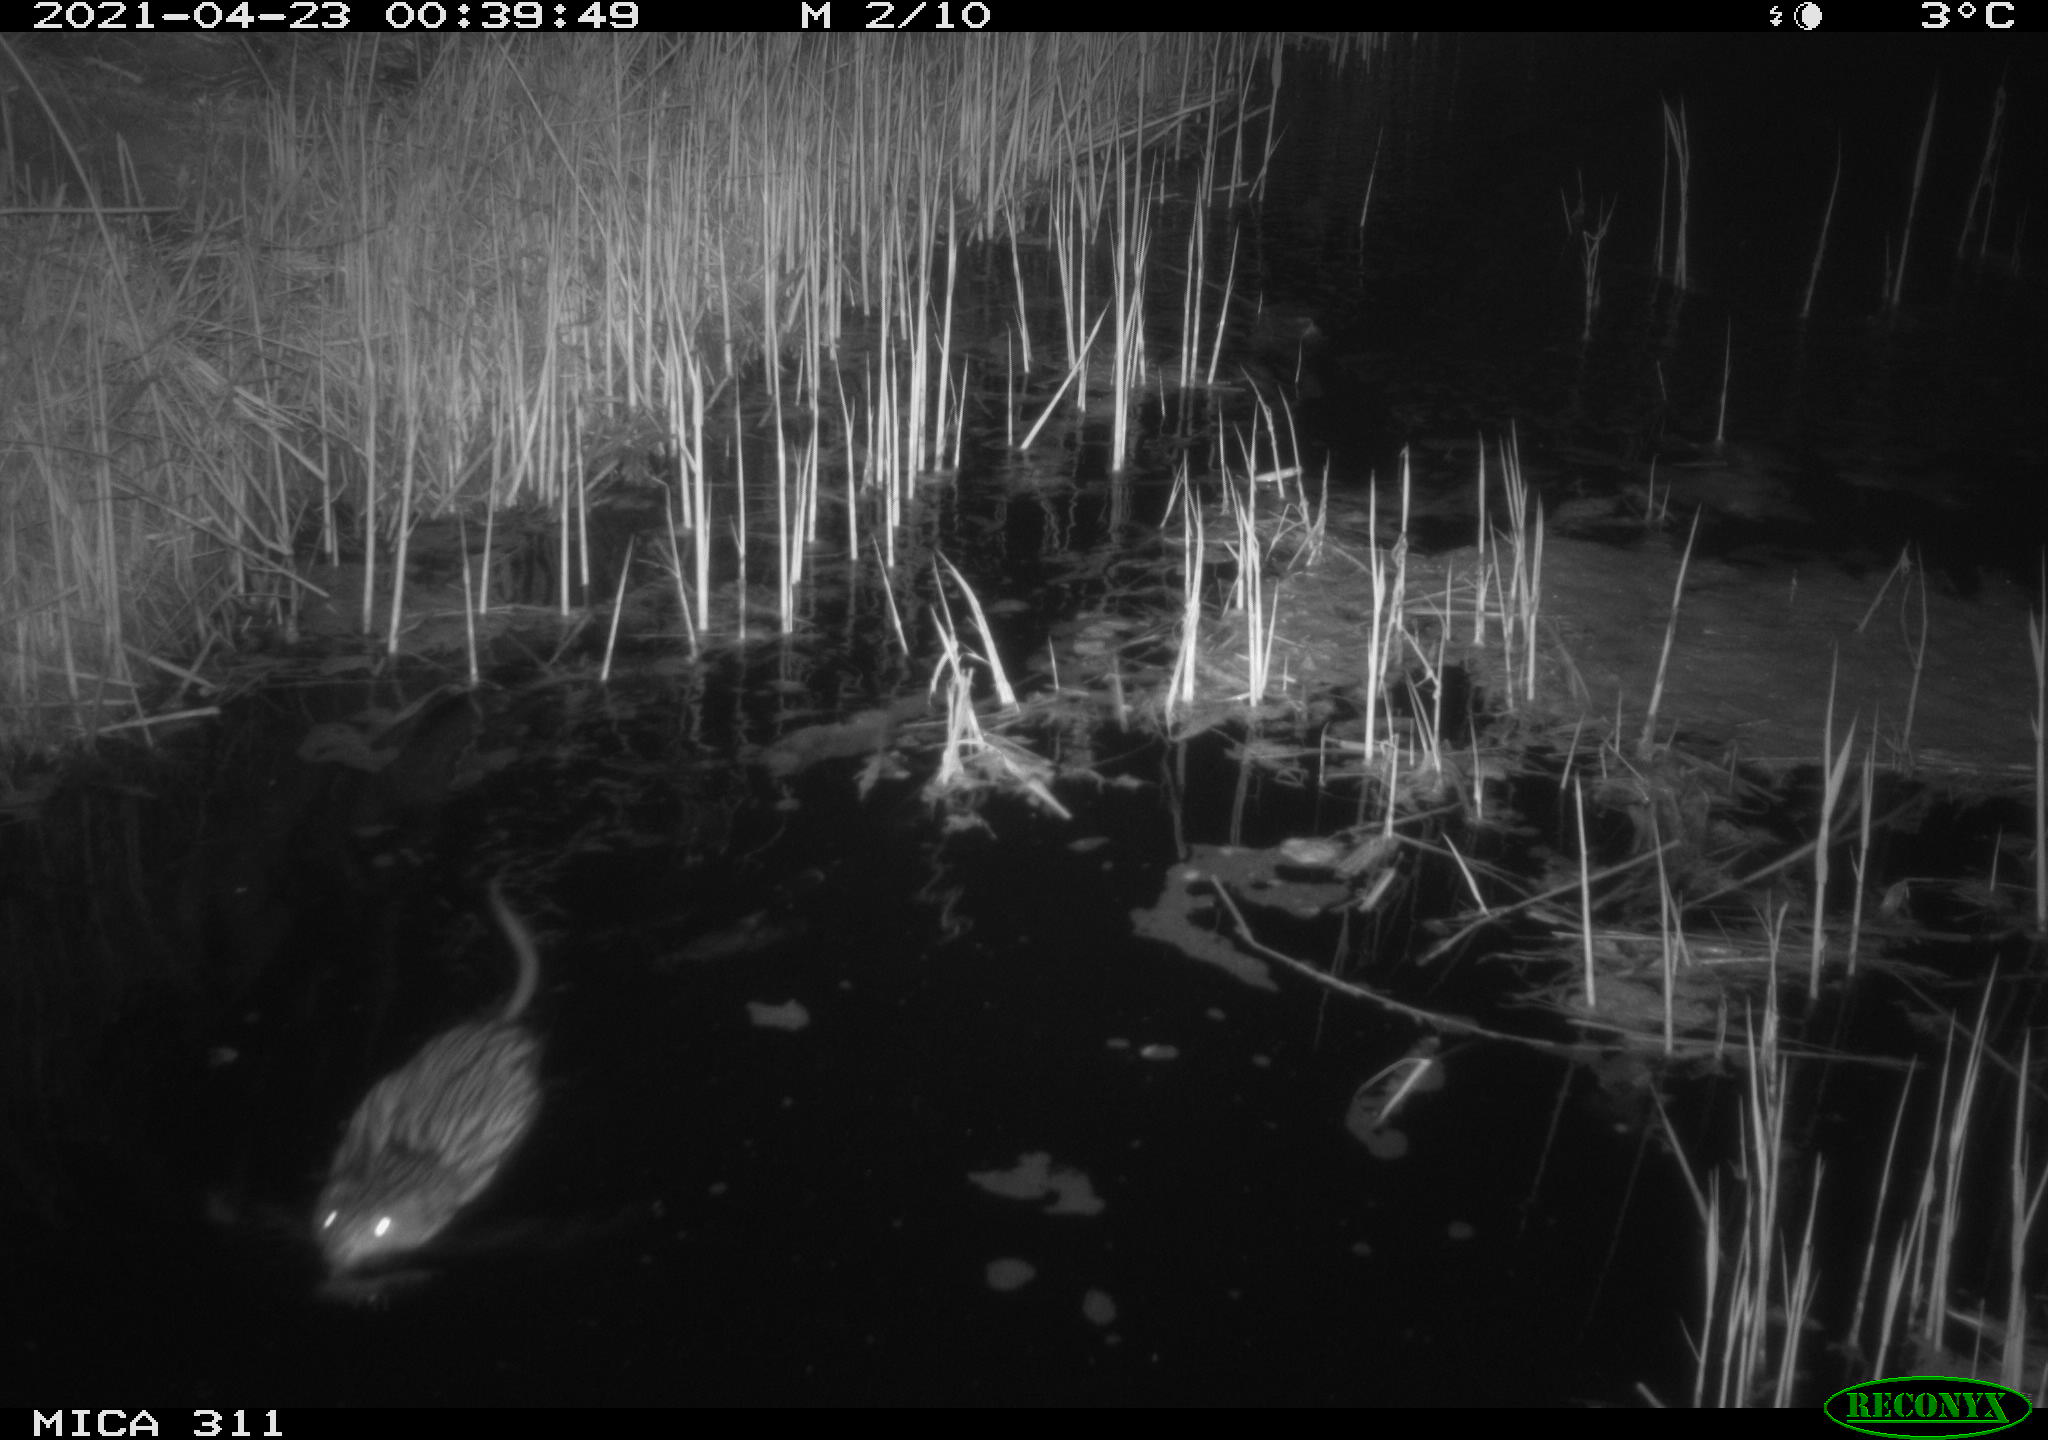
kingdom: Animalia
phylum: Chordata
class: Mammalia
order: Rodentia
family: Cricetidae
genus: Ondatra
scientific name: Ondatra zibethicus
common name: Muskrat
